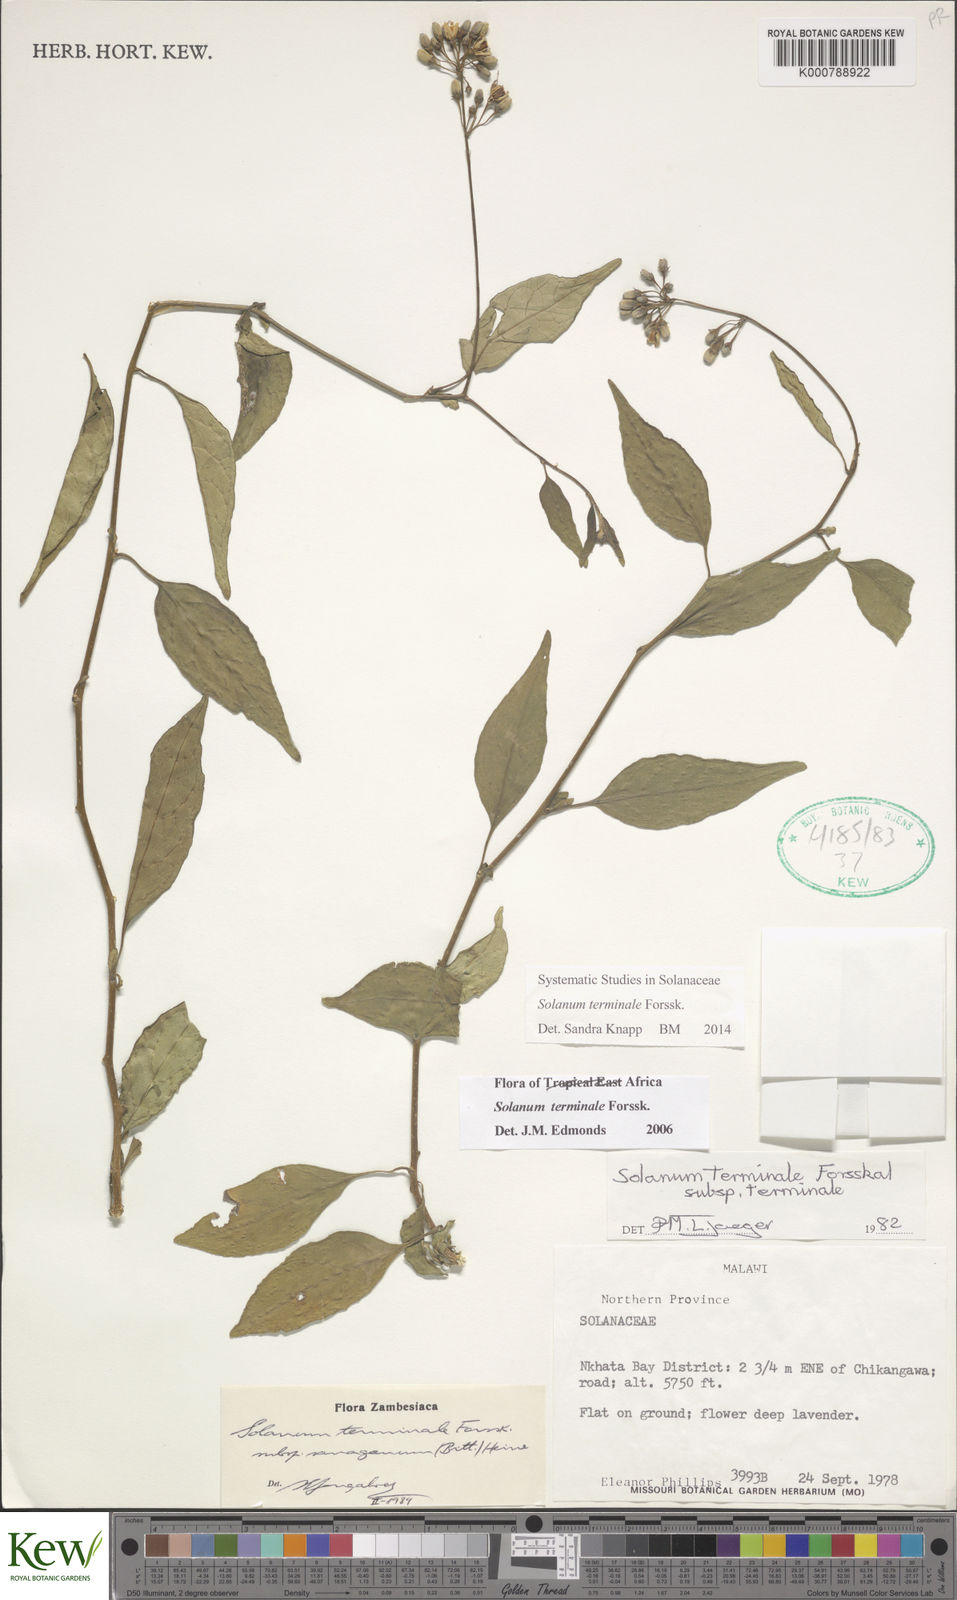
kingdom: Plantae
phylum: Tracheophyta
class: Magnoliopsida
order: Solanales
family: Solanaceae
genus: Solanum
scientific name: Solanum terminale
